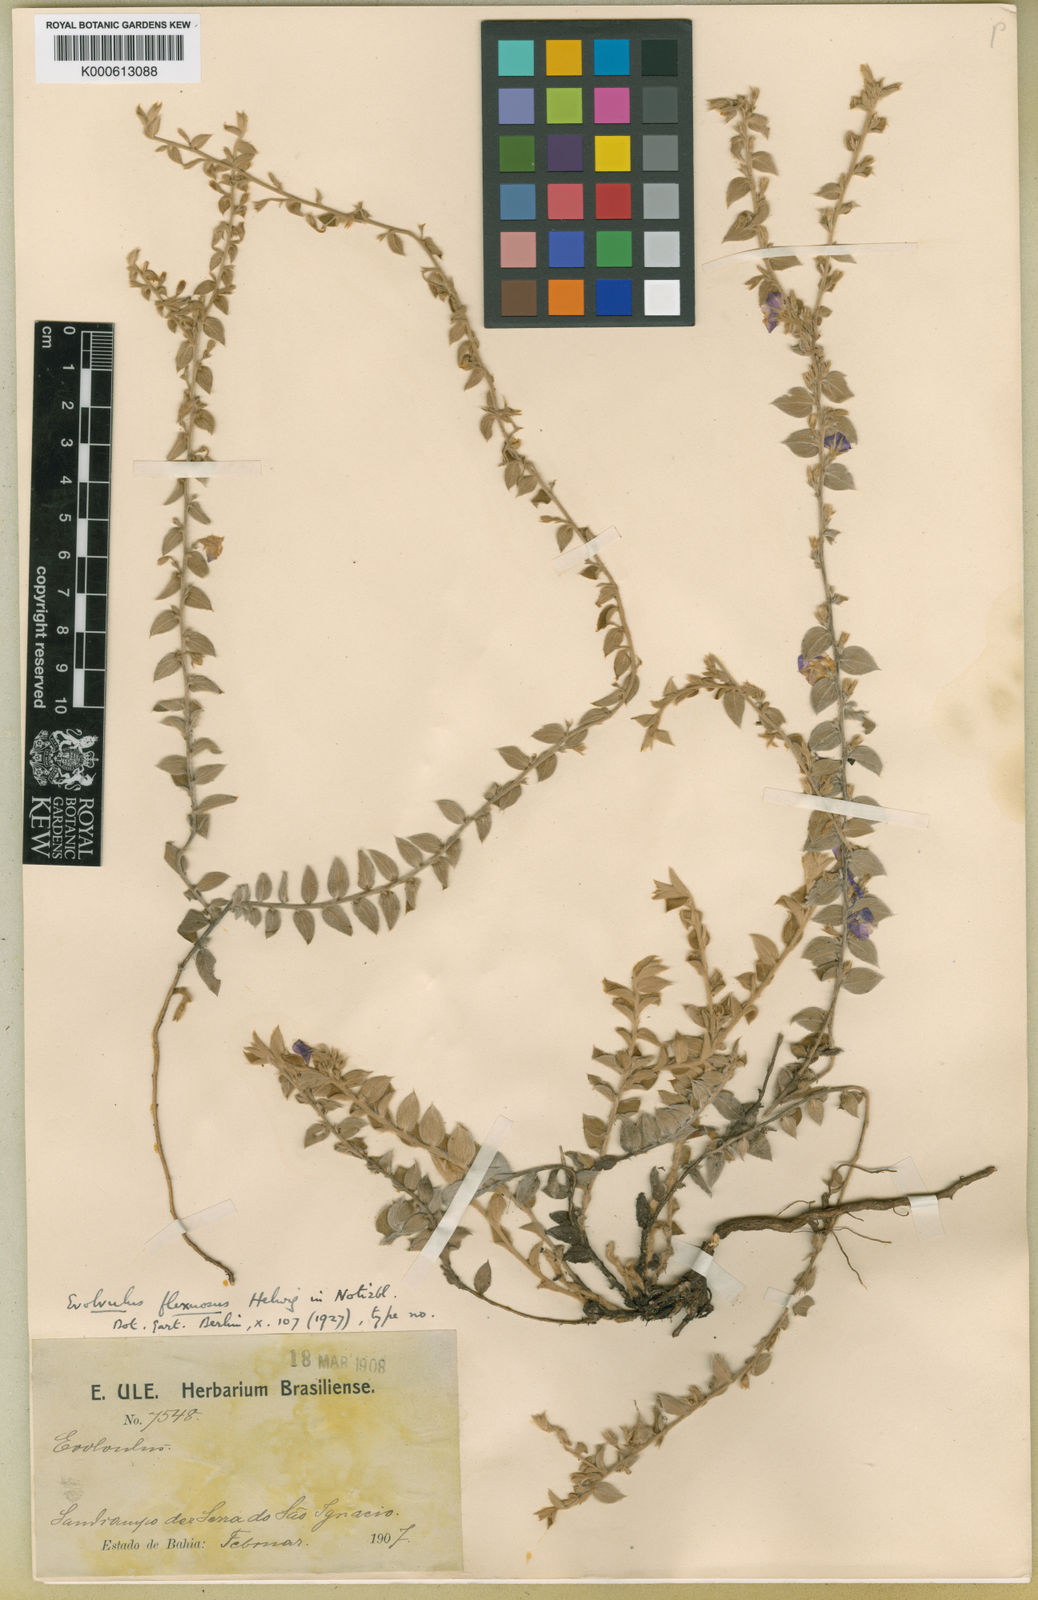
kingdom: Plantae
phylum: Tracheophyta
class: Magnoliopsida
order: Solanales
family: Convolvulaceae
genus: Evolvulus
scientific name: Evolvulus flexuosus
